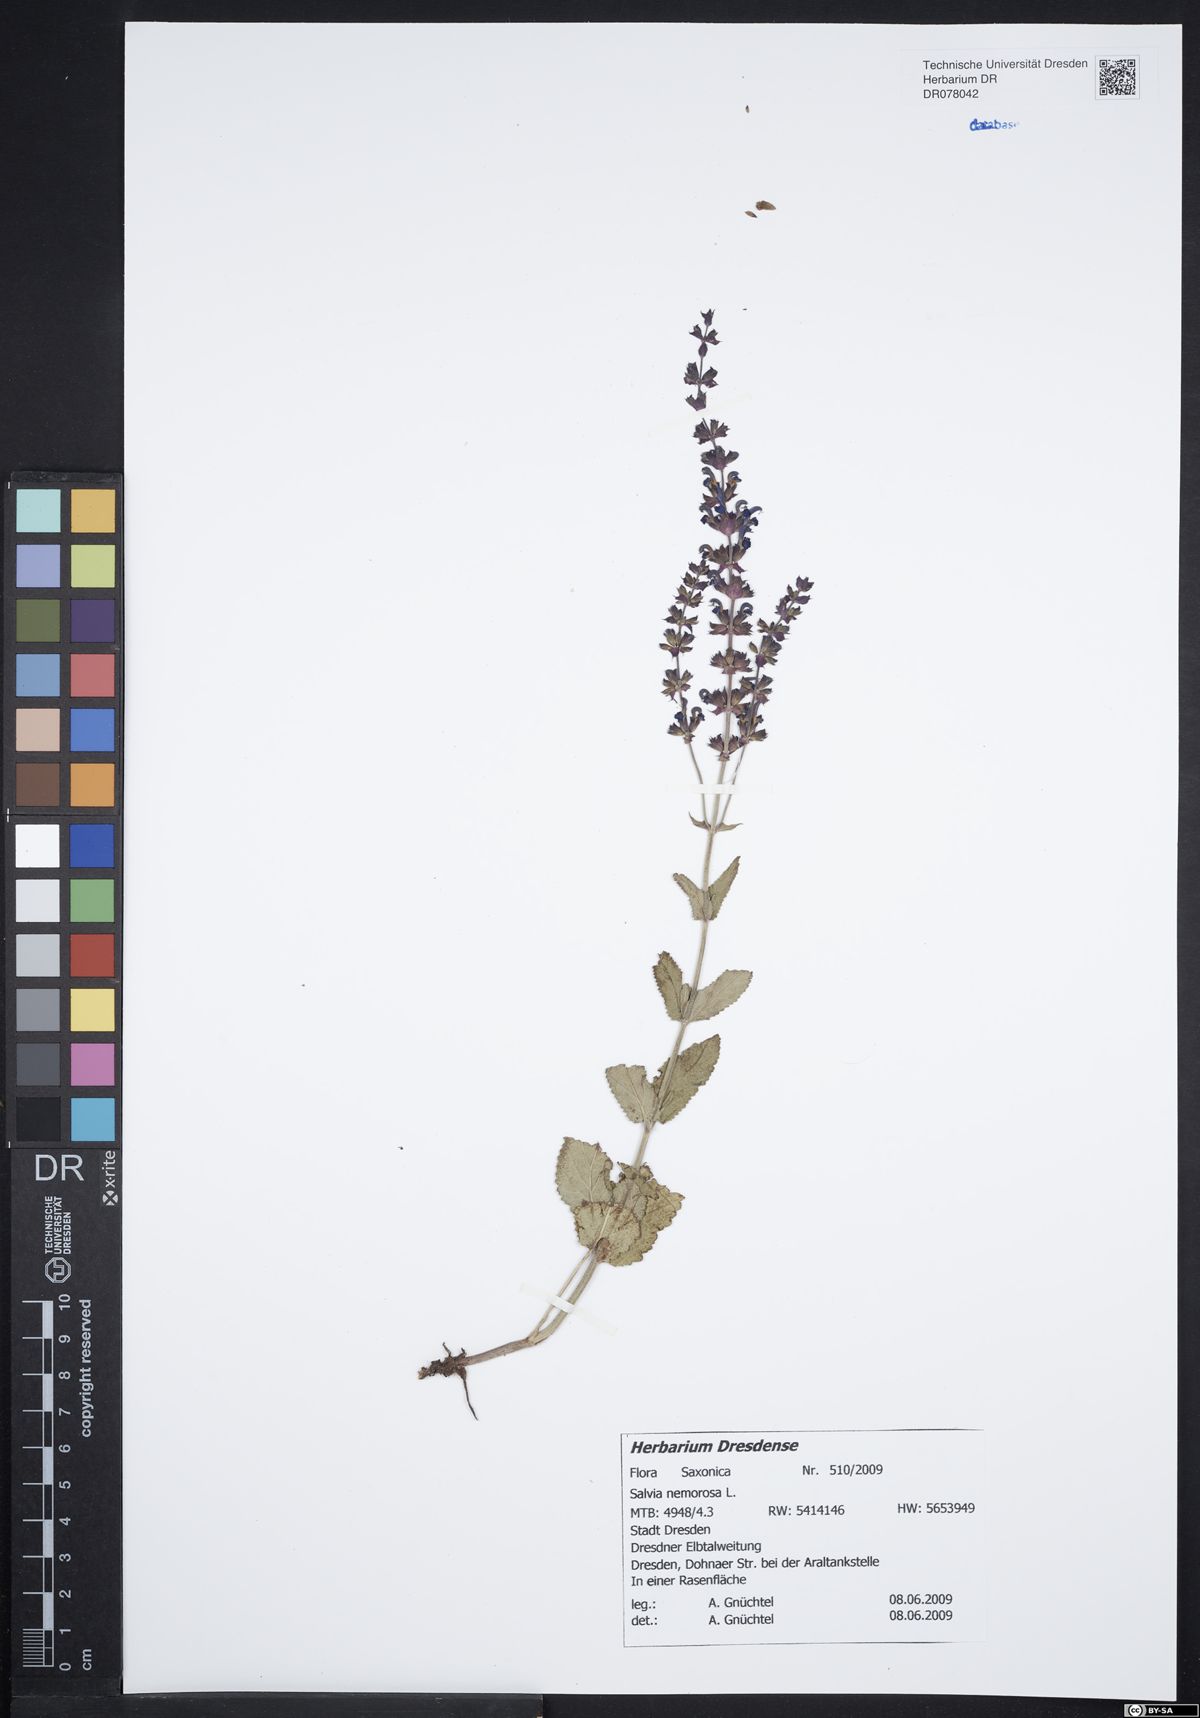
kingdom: Plantae
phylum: Tracheophyta
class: Magnoliopsida
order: Lamiales
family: Lamiaceae
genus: Salvia
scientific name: Salvia nemorosa
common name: Balkan clary
